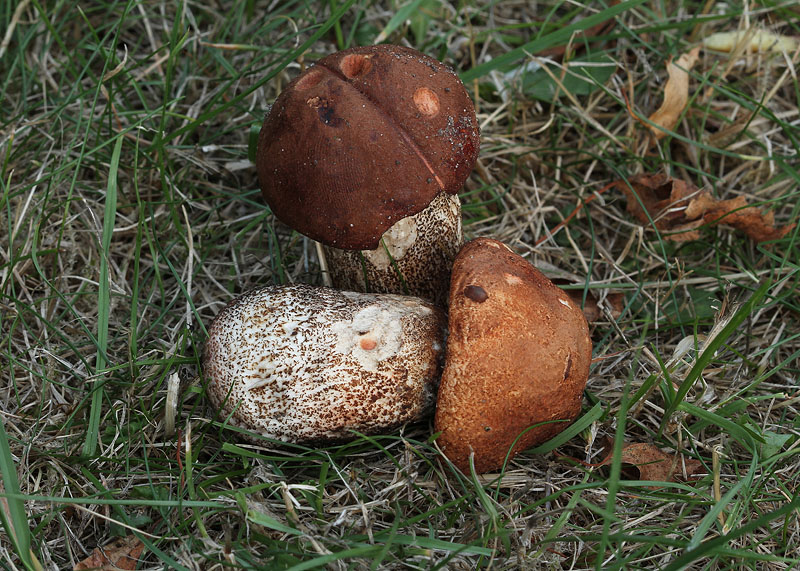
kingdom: Fungi
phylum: Basidiomycota
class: Agaricomycetes
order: Boletales
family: Boletaceae
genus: Leccinum
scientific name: Leccinum aurantiacum
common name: rustrød skælrørhat
